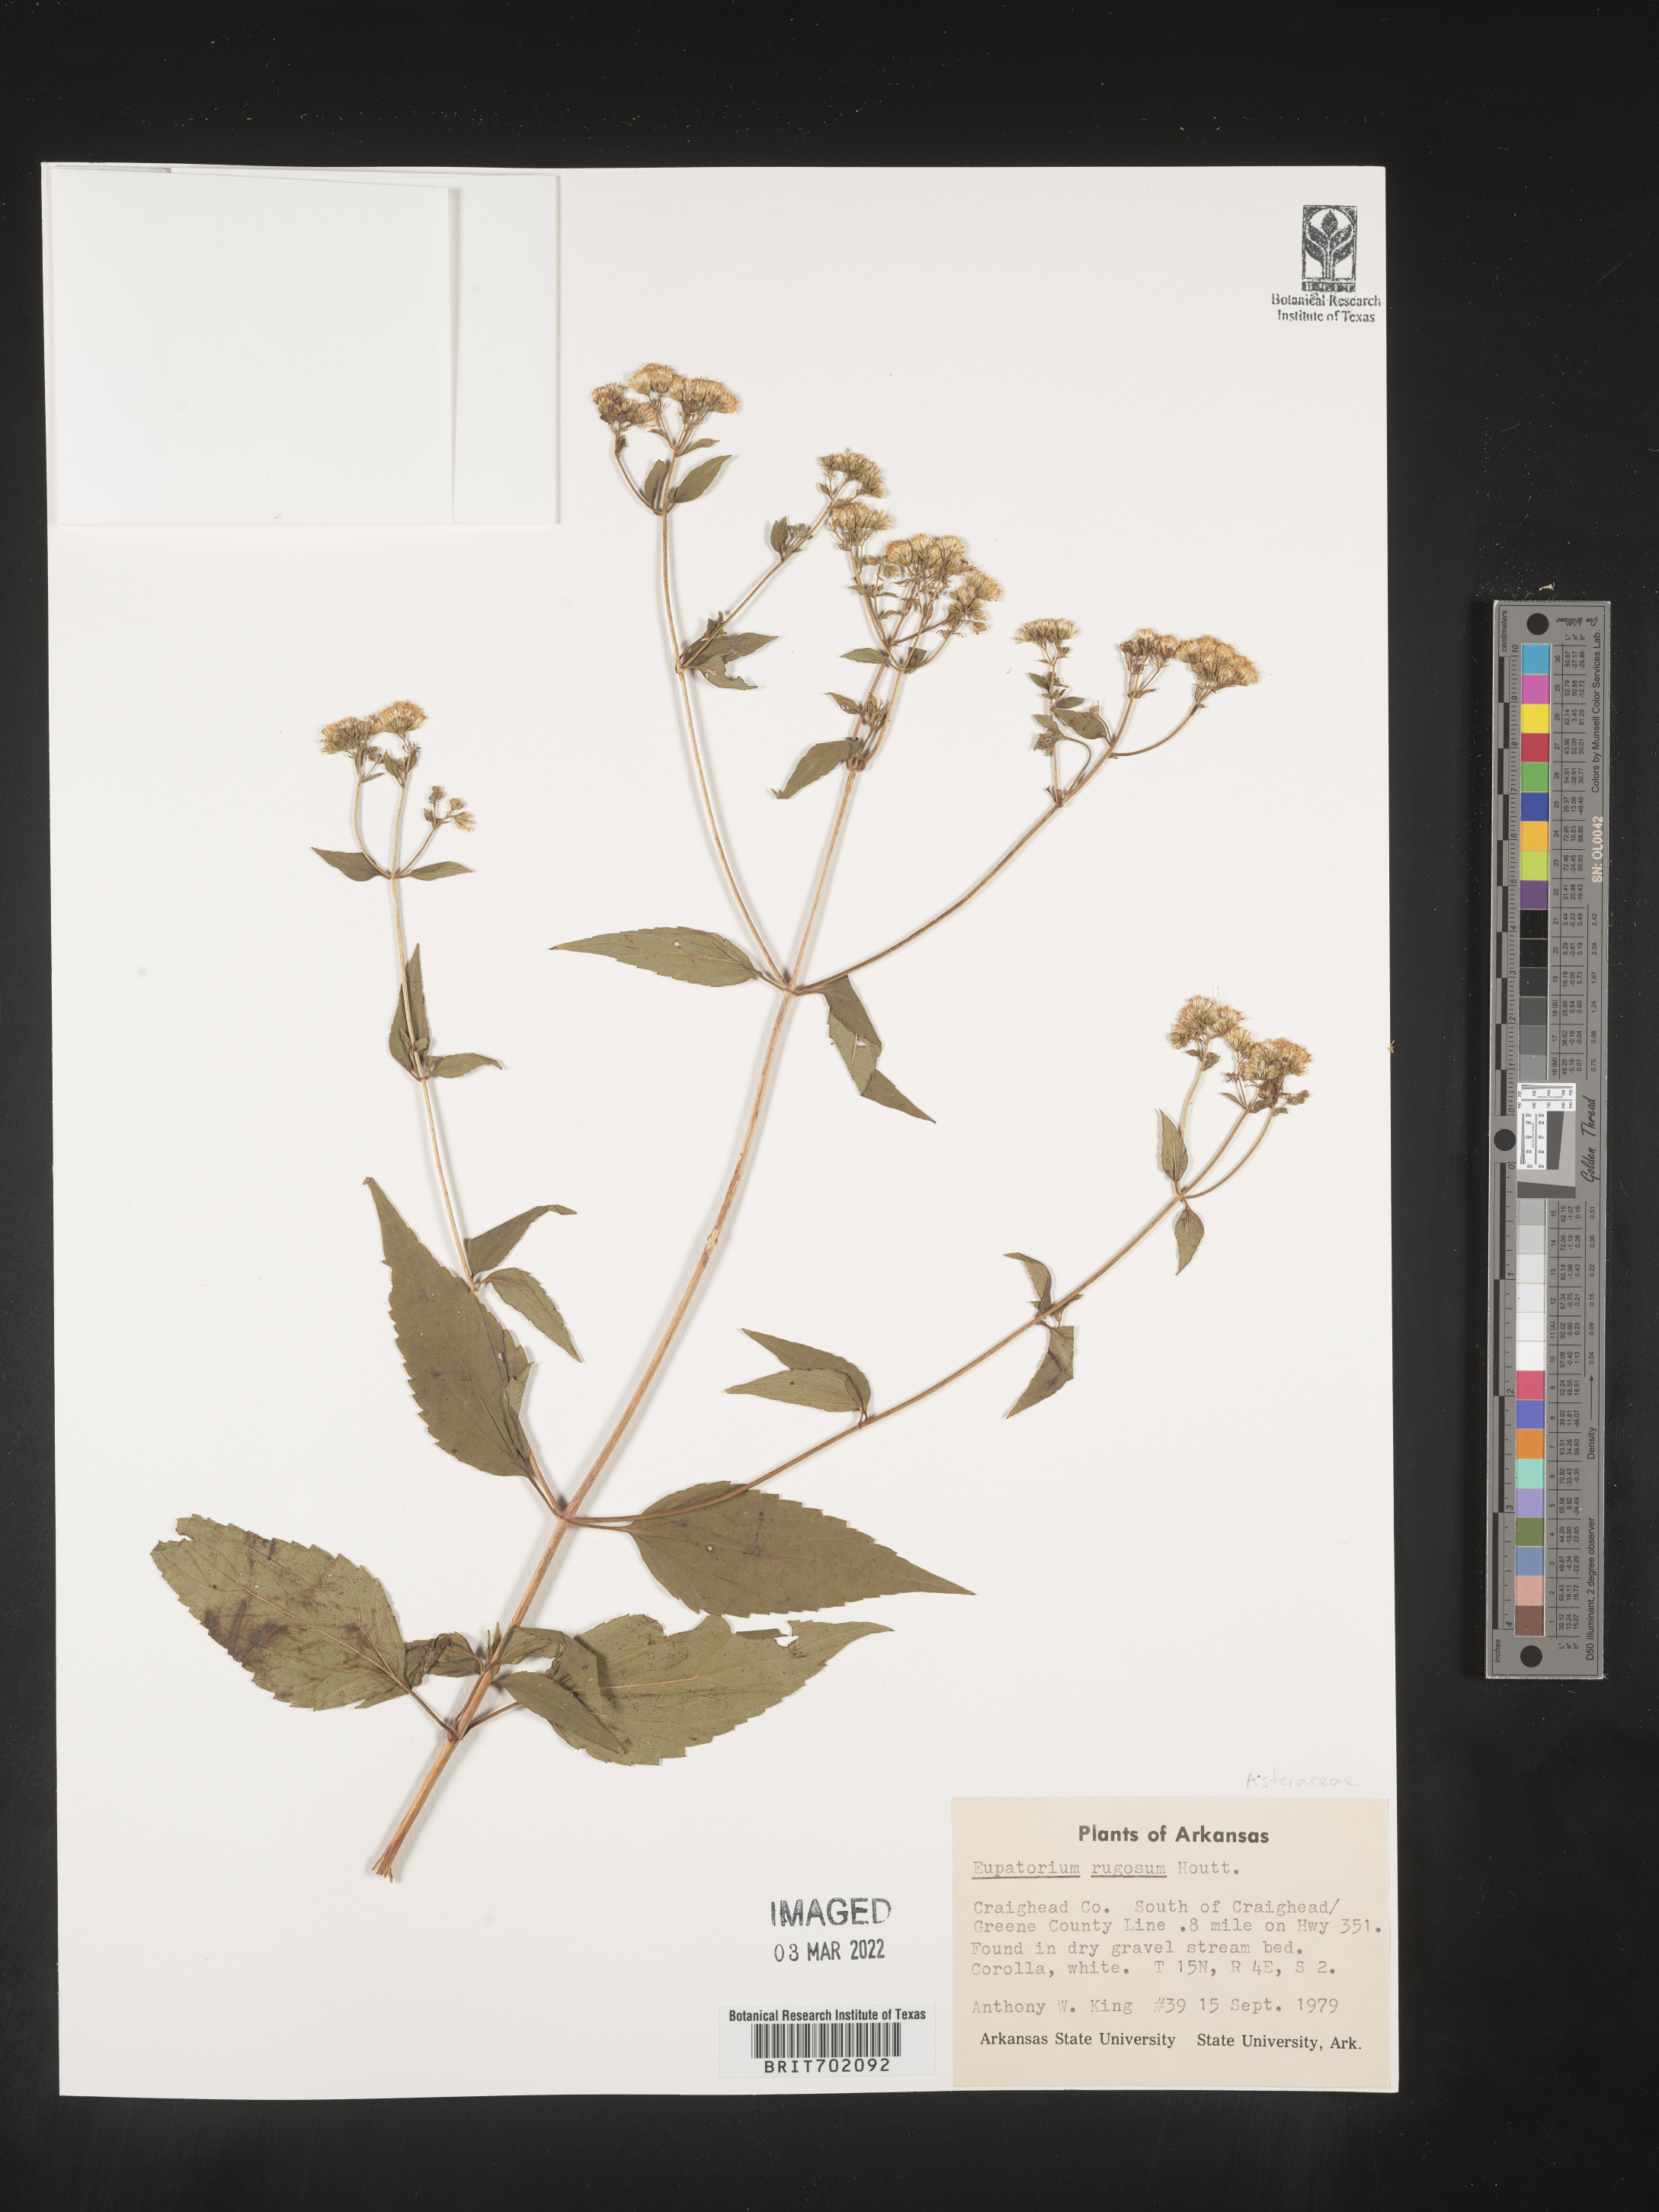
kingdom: Plantae
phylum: Tracheophyta
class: Magnoliopsida
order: Asterales
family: Asteraceae
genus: Cronquistianthus
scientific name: Cronquistianthus bulliferus
